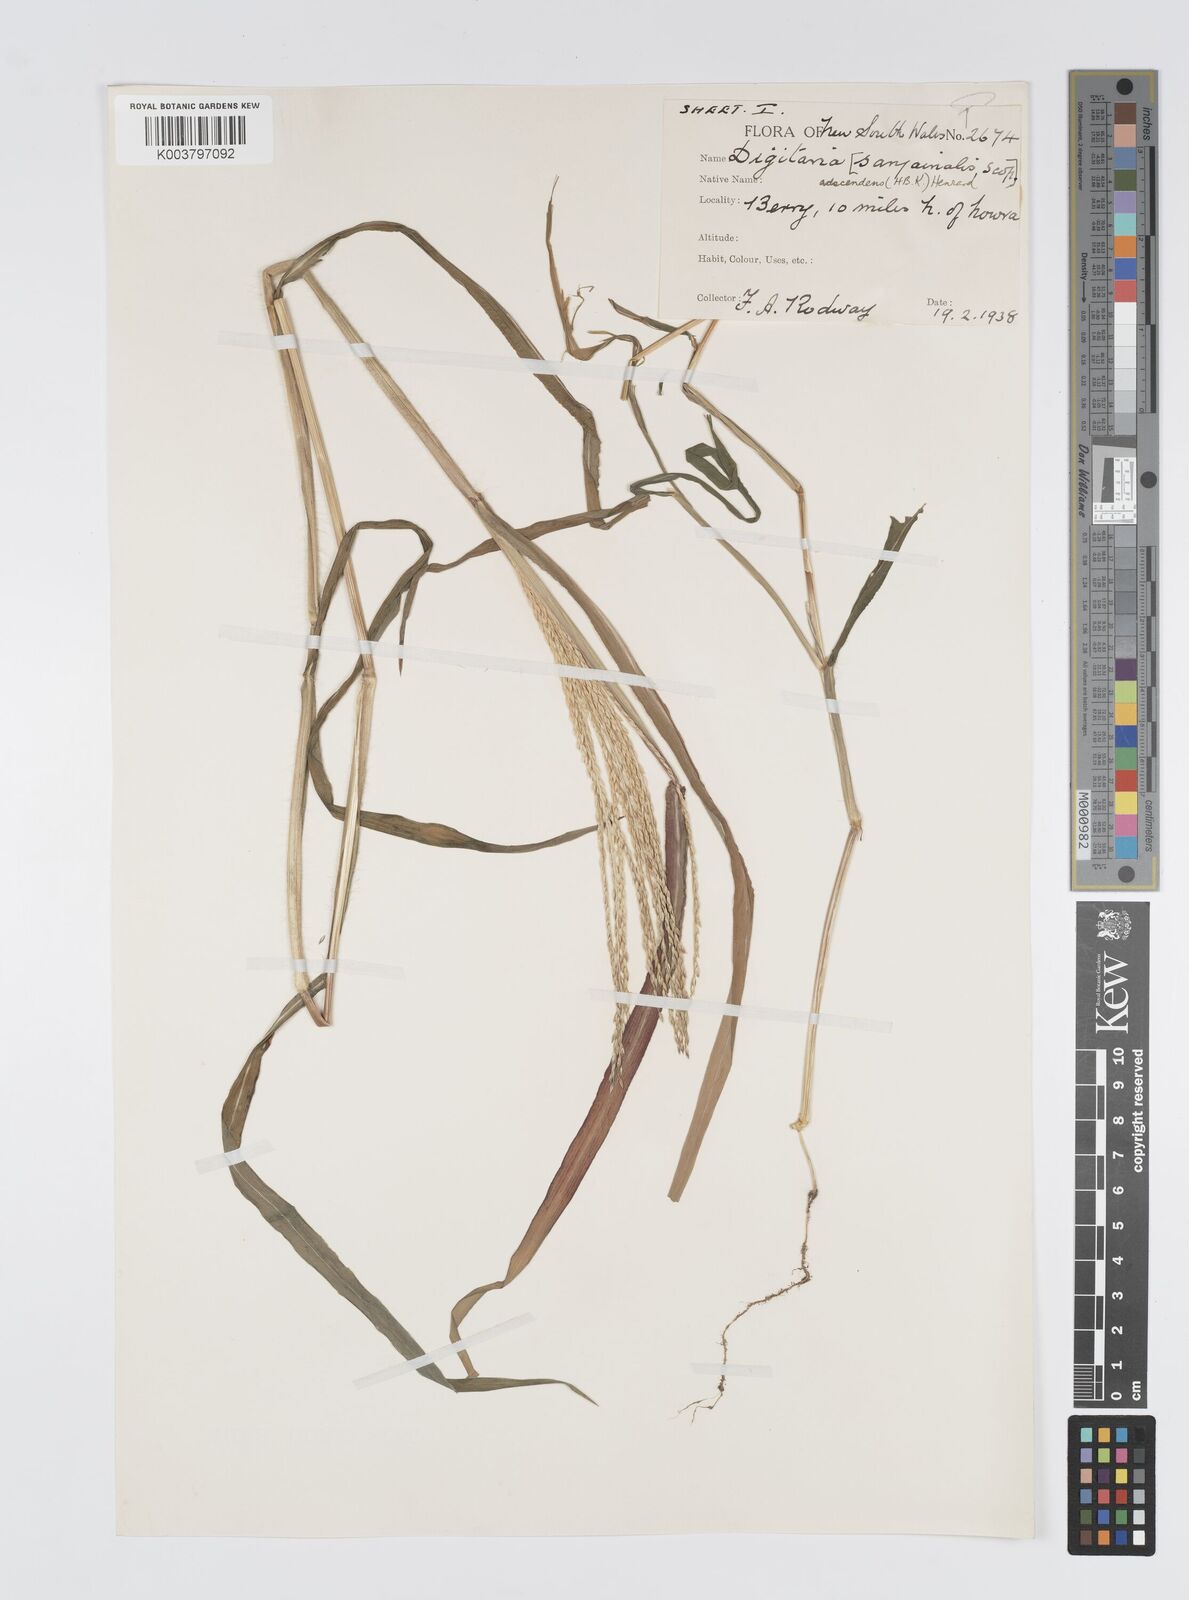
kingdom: Plantae
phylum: Tracheophyta
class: Liliopsida
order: Poales
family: Poaceae
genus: Digitaria
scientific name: Digitaria ciliaris
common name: Tropical finger-grass
